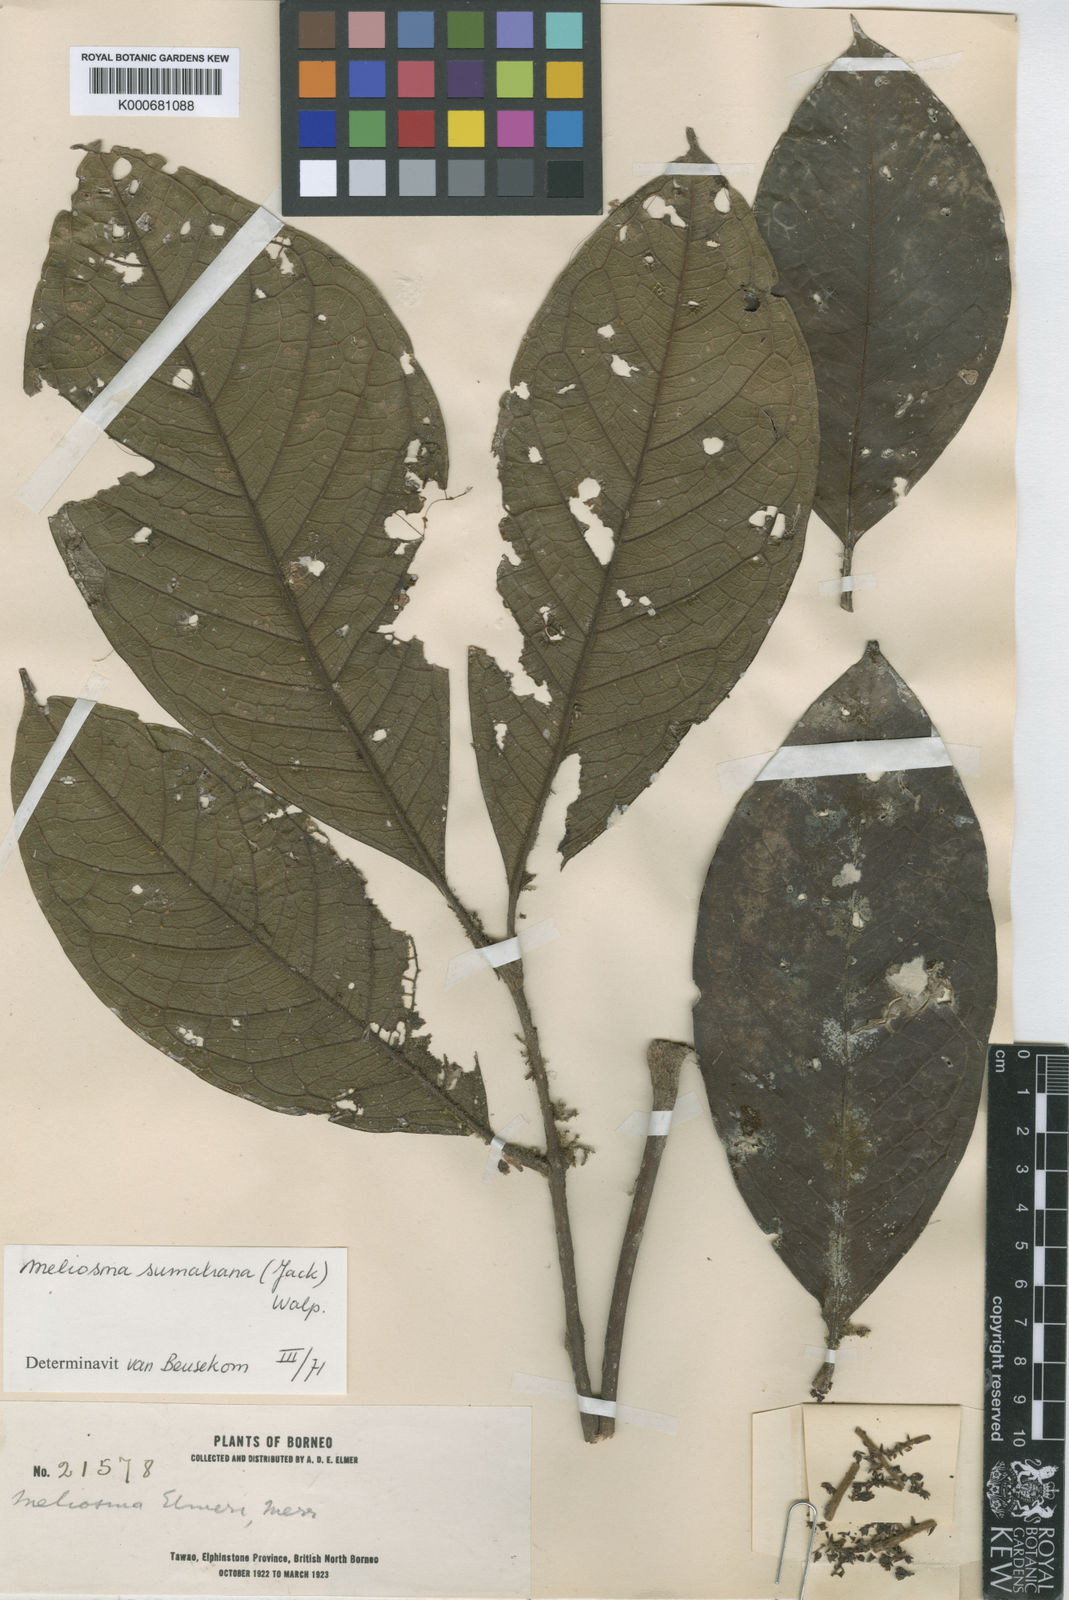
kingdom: Plantae
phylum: Tracheophyta
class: Magnoliopsida
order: Proteales
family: Sabiaceae
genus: Meliosma
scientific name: Meliosma sumatrana
